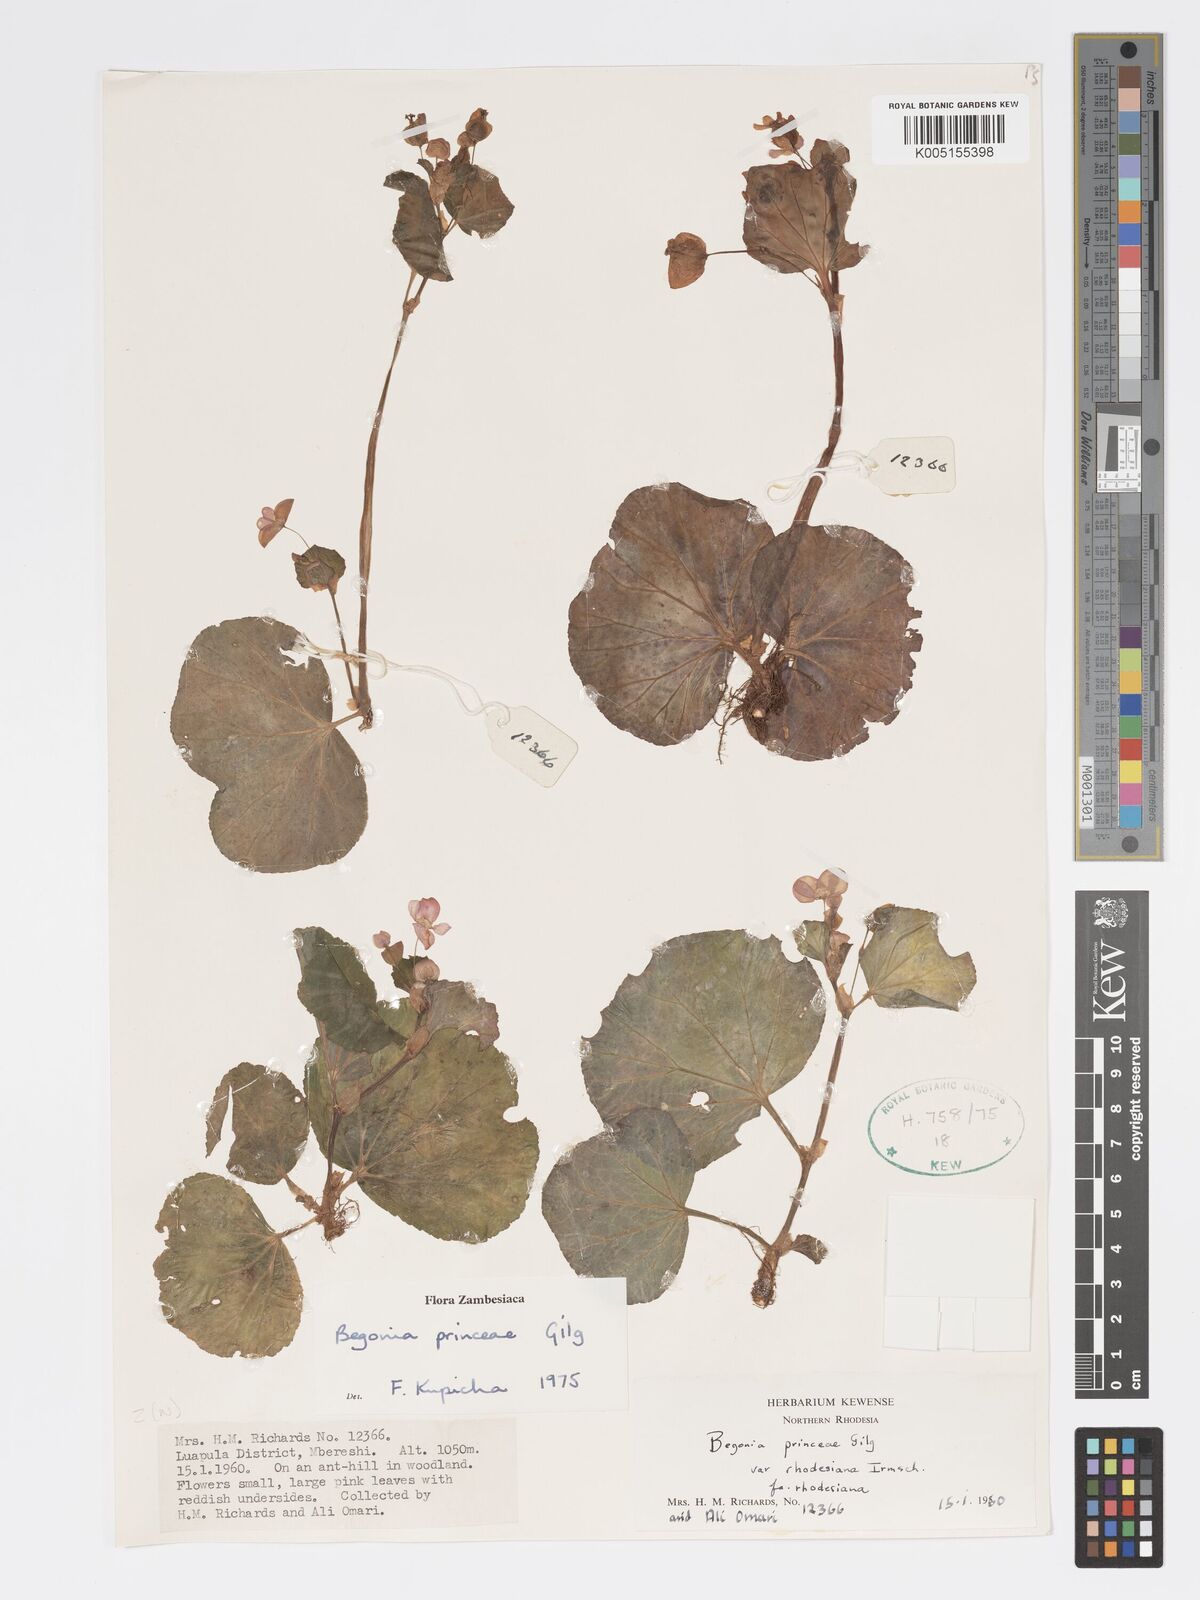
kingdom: Plantae
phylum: Tracheophyta
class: Magnoliopsida
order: Cucurbitales
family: Begoniaceae
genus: Begonia
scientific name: Begonia princeae
